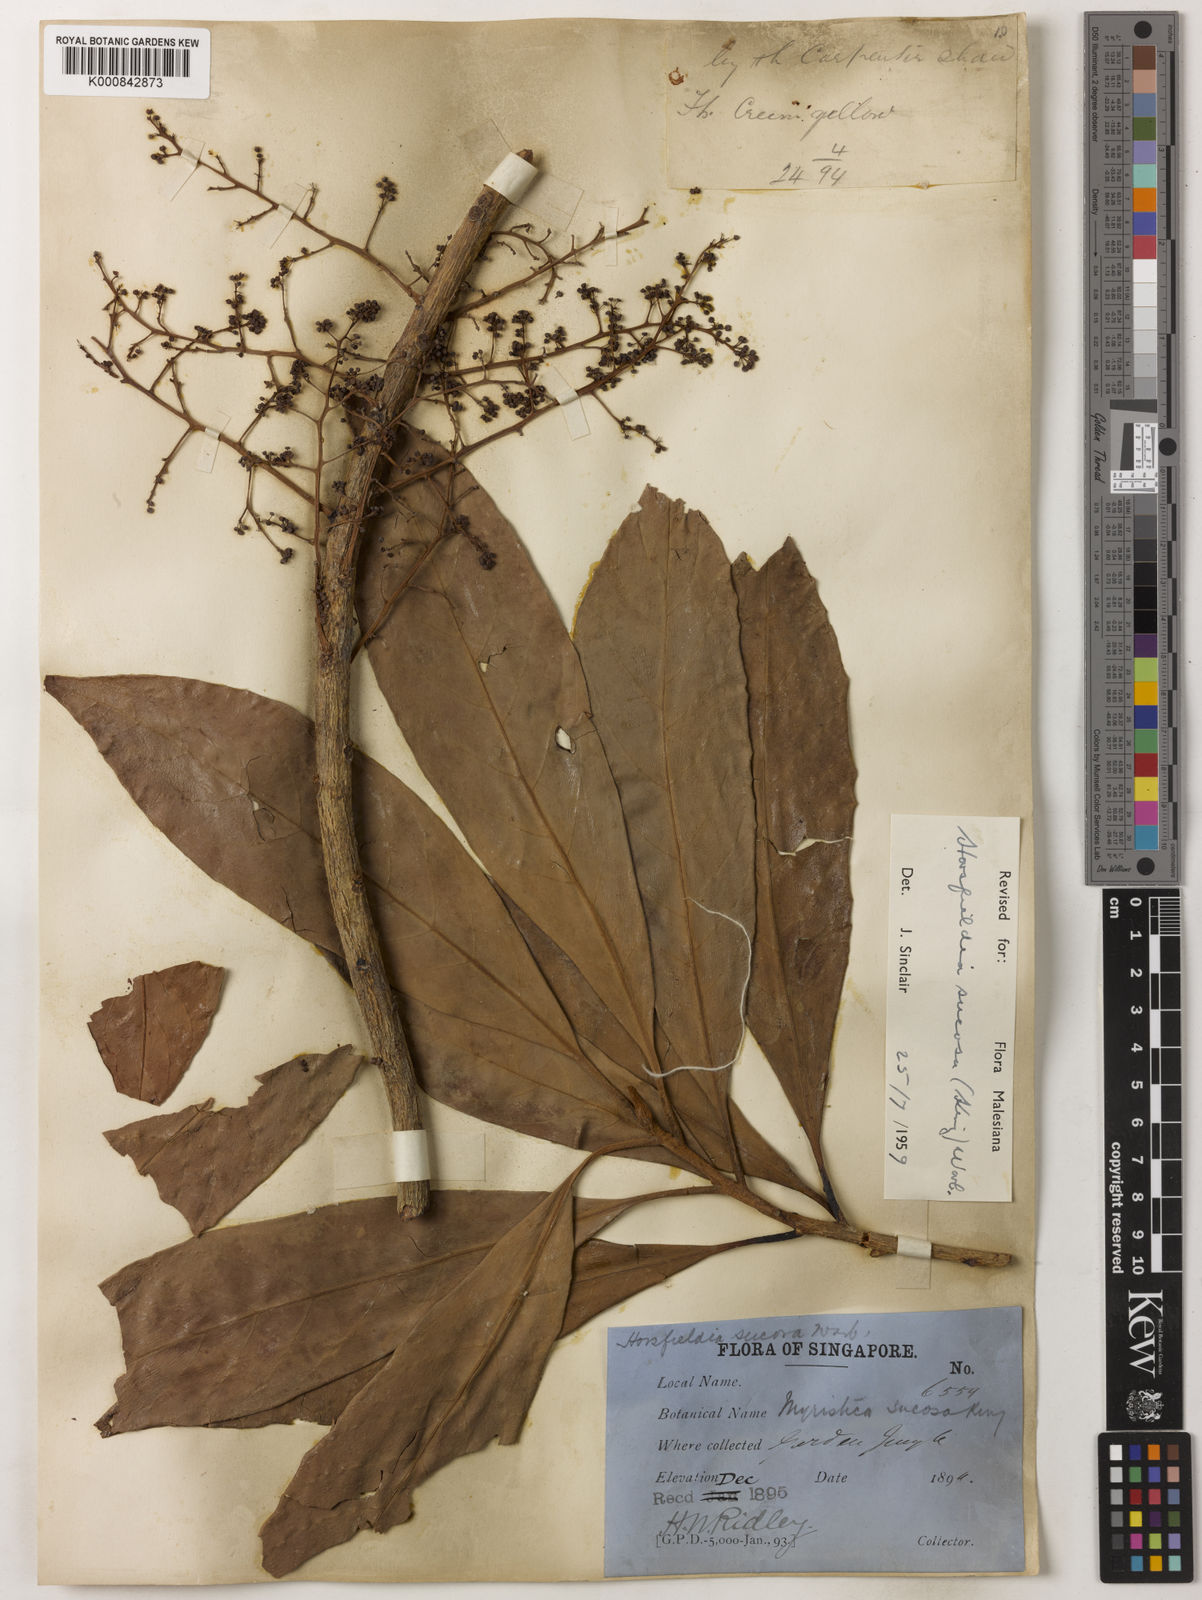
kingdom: Plantae
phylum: Tracheophyta
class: Magnoliopsida
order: Magnoliales
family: Myristicaceae
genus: Horsfieldia
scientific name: Horsfieldia sucosa
